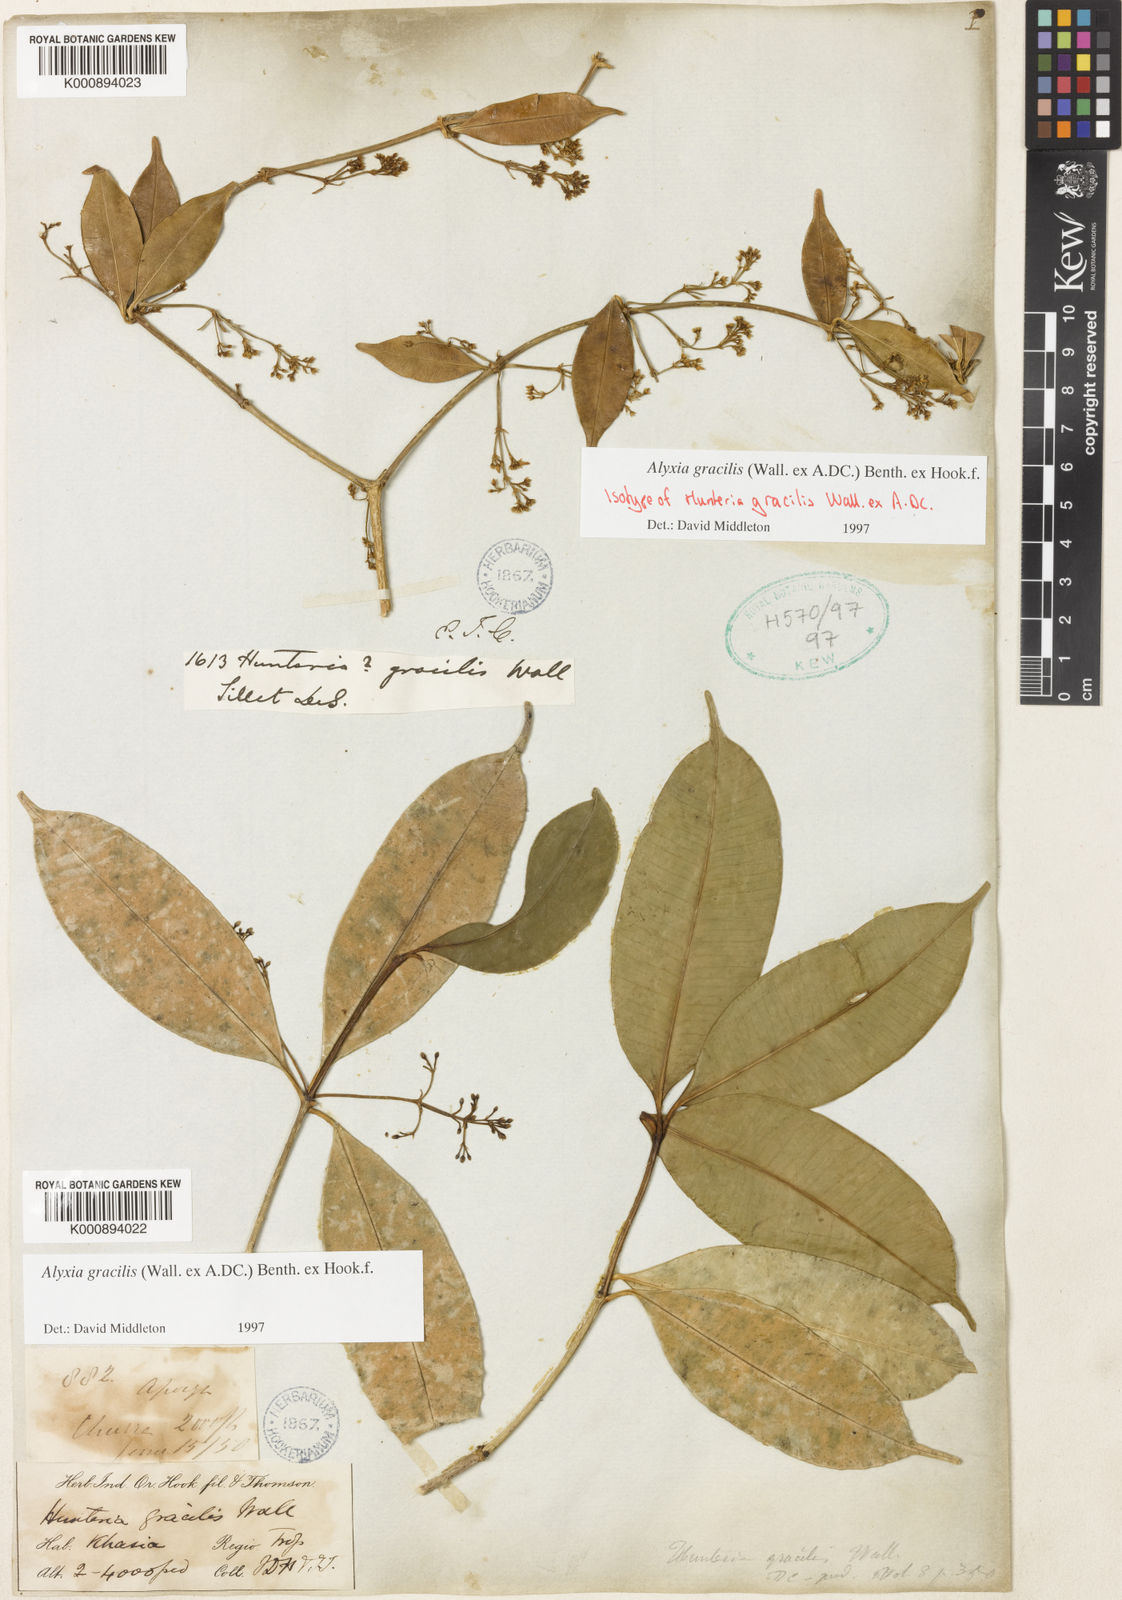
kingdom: Plantae
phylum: Tracheophyta
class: Magnoliopsida
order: Gentianales
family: Apocynaceae
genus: Alyxia
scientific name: Alyxia gracilis
